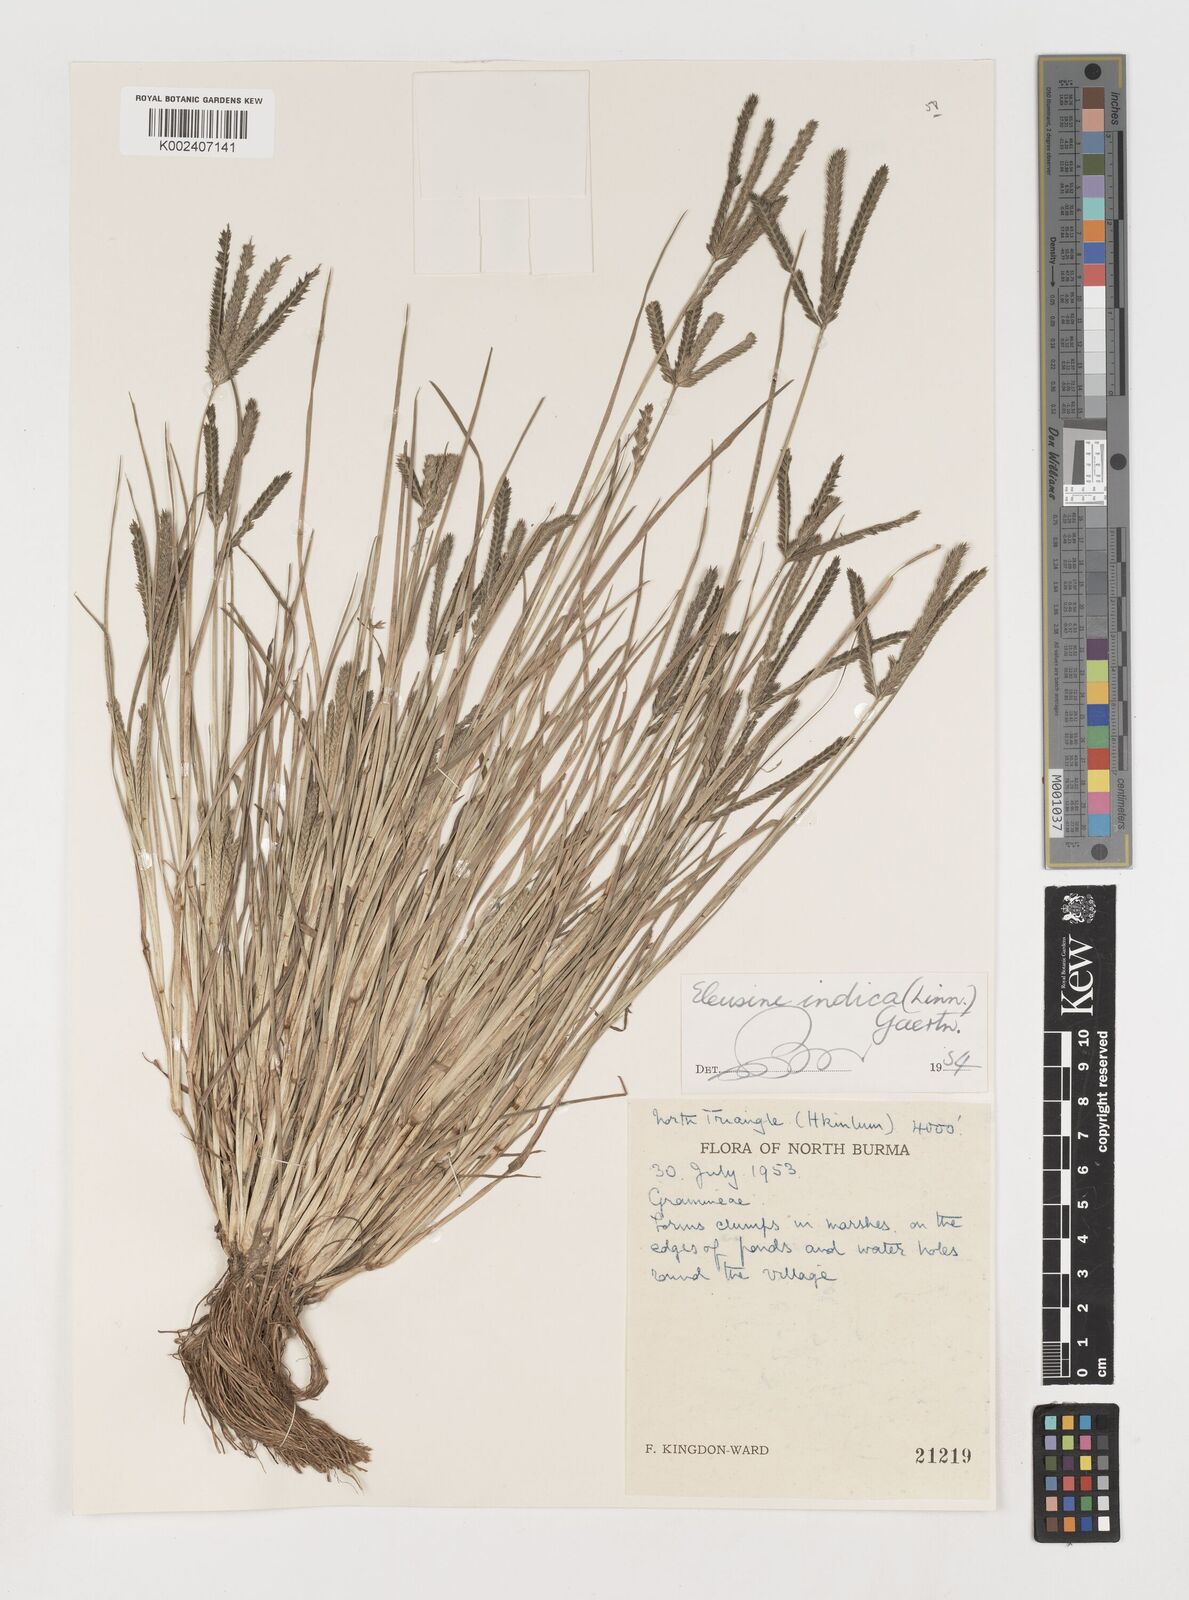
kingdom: Plantae
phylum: Tracheophyta
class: Liliopsida
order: Poales
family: Poaceae
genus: Eleusine
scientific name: Eleusine indica
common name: Yard-grass
